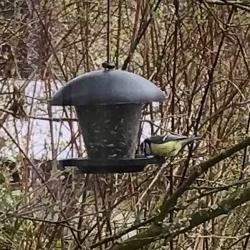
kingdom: Animalia
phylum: Chordata
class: Aves
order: Passeriformes
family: Paridae
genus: Cyanistes
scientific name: Cyanistes caeruleus
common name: Blåmejse
